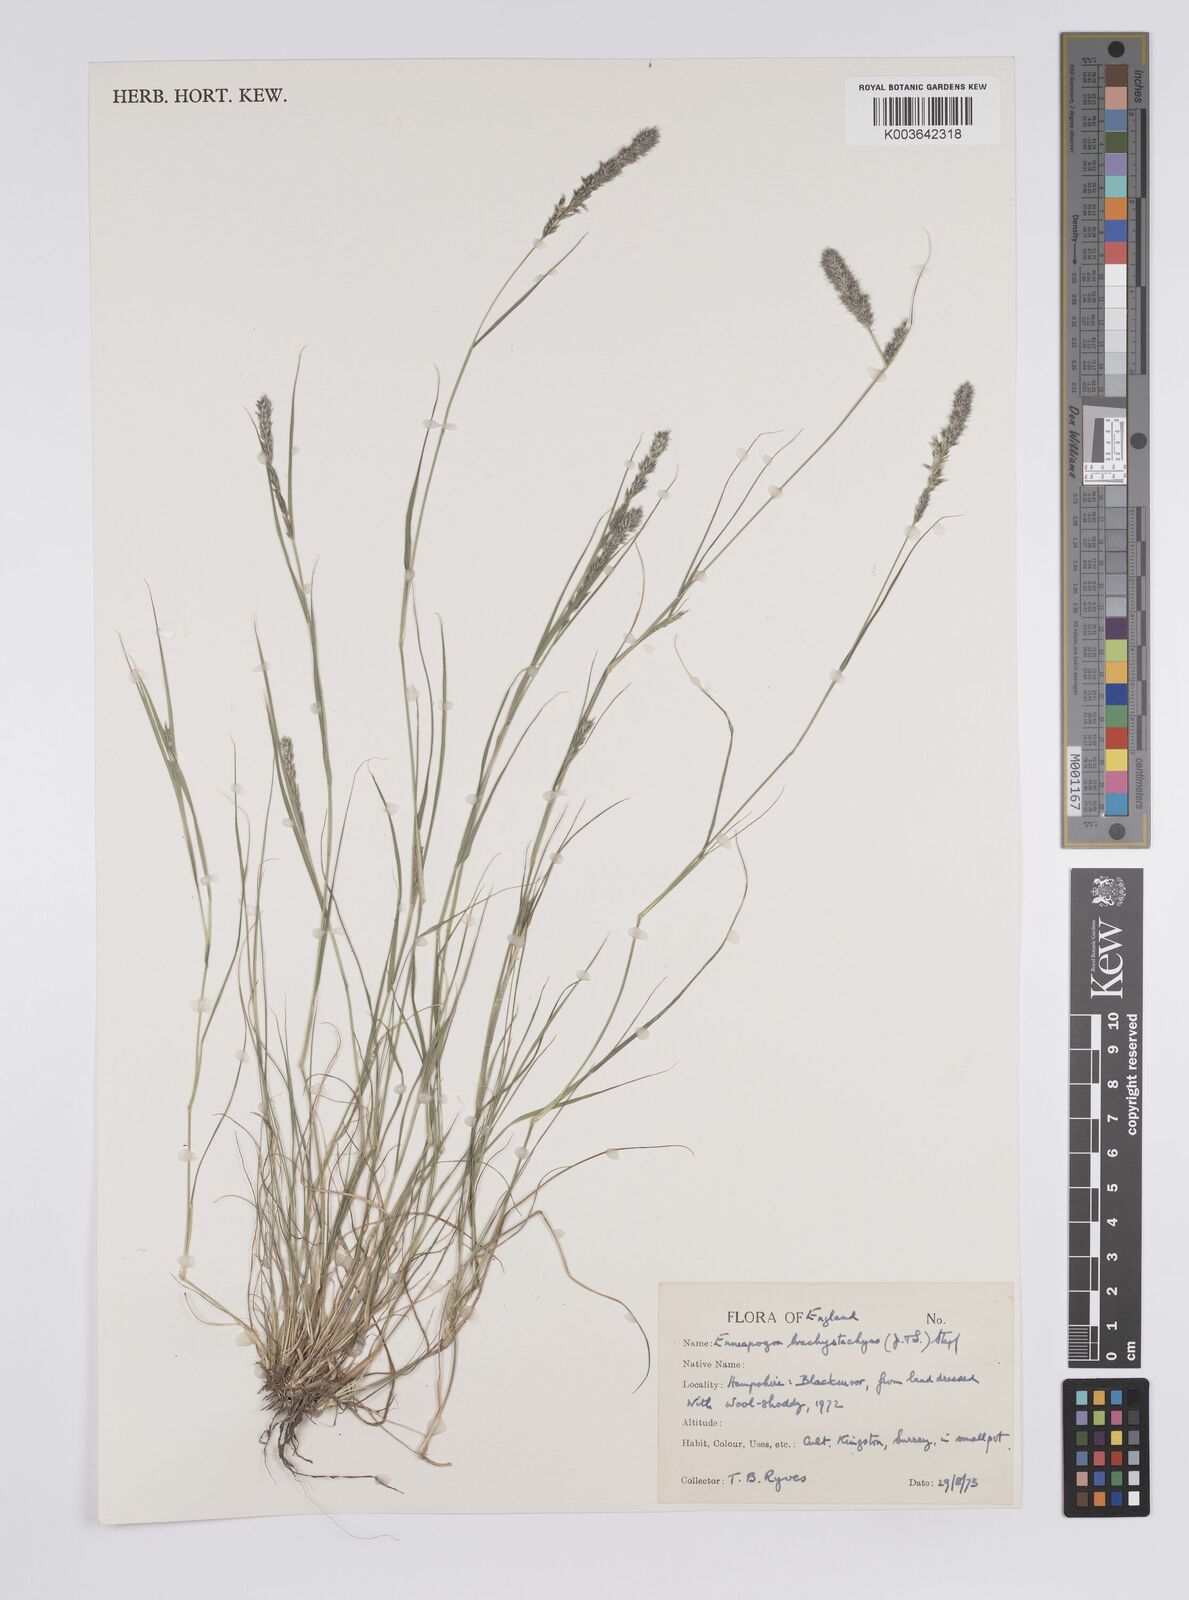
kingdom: Plantae
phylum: Tracheophyta
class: Liliopsida
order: Poales
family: Poaceae
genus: Enneapogon
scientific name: Enneapogon desvauxii
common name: Feather pappus grass
